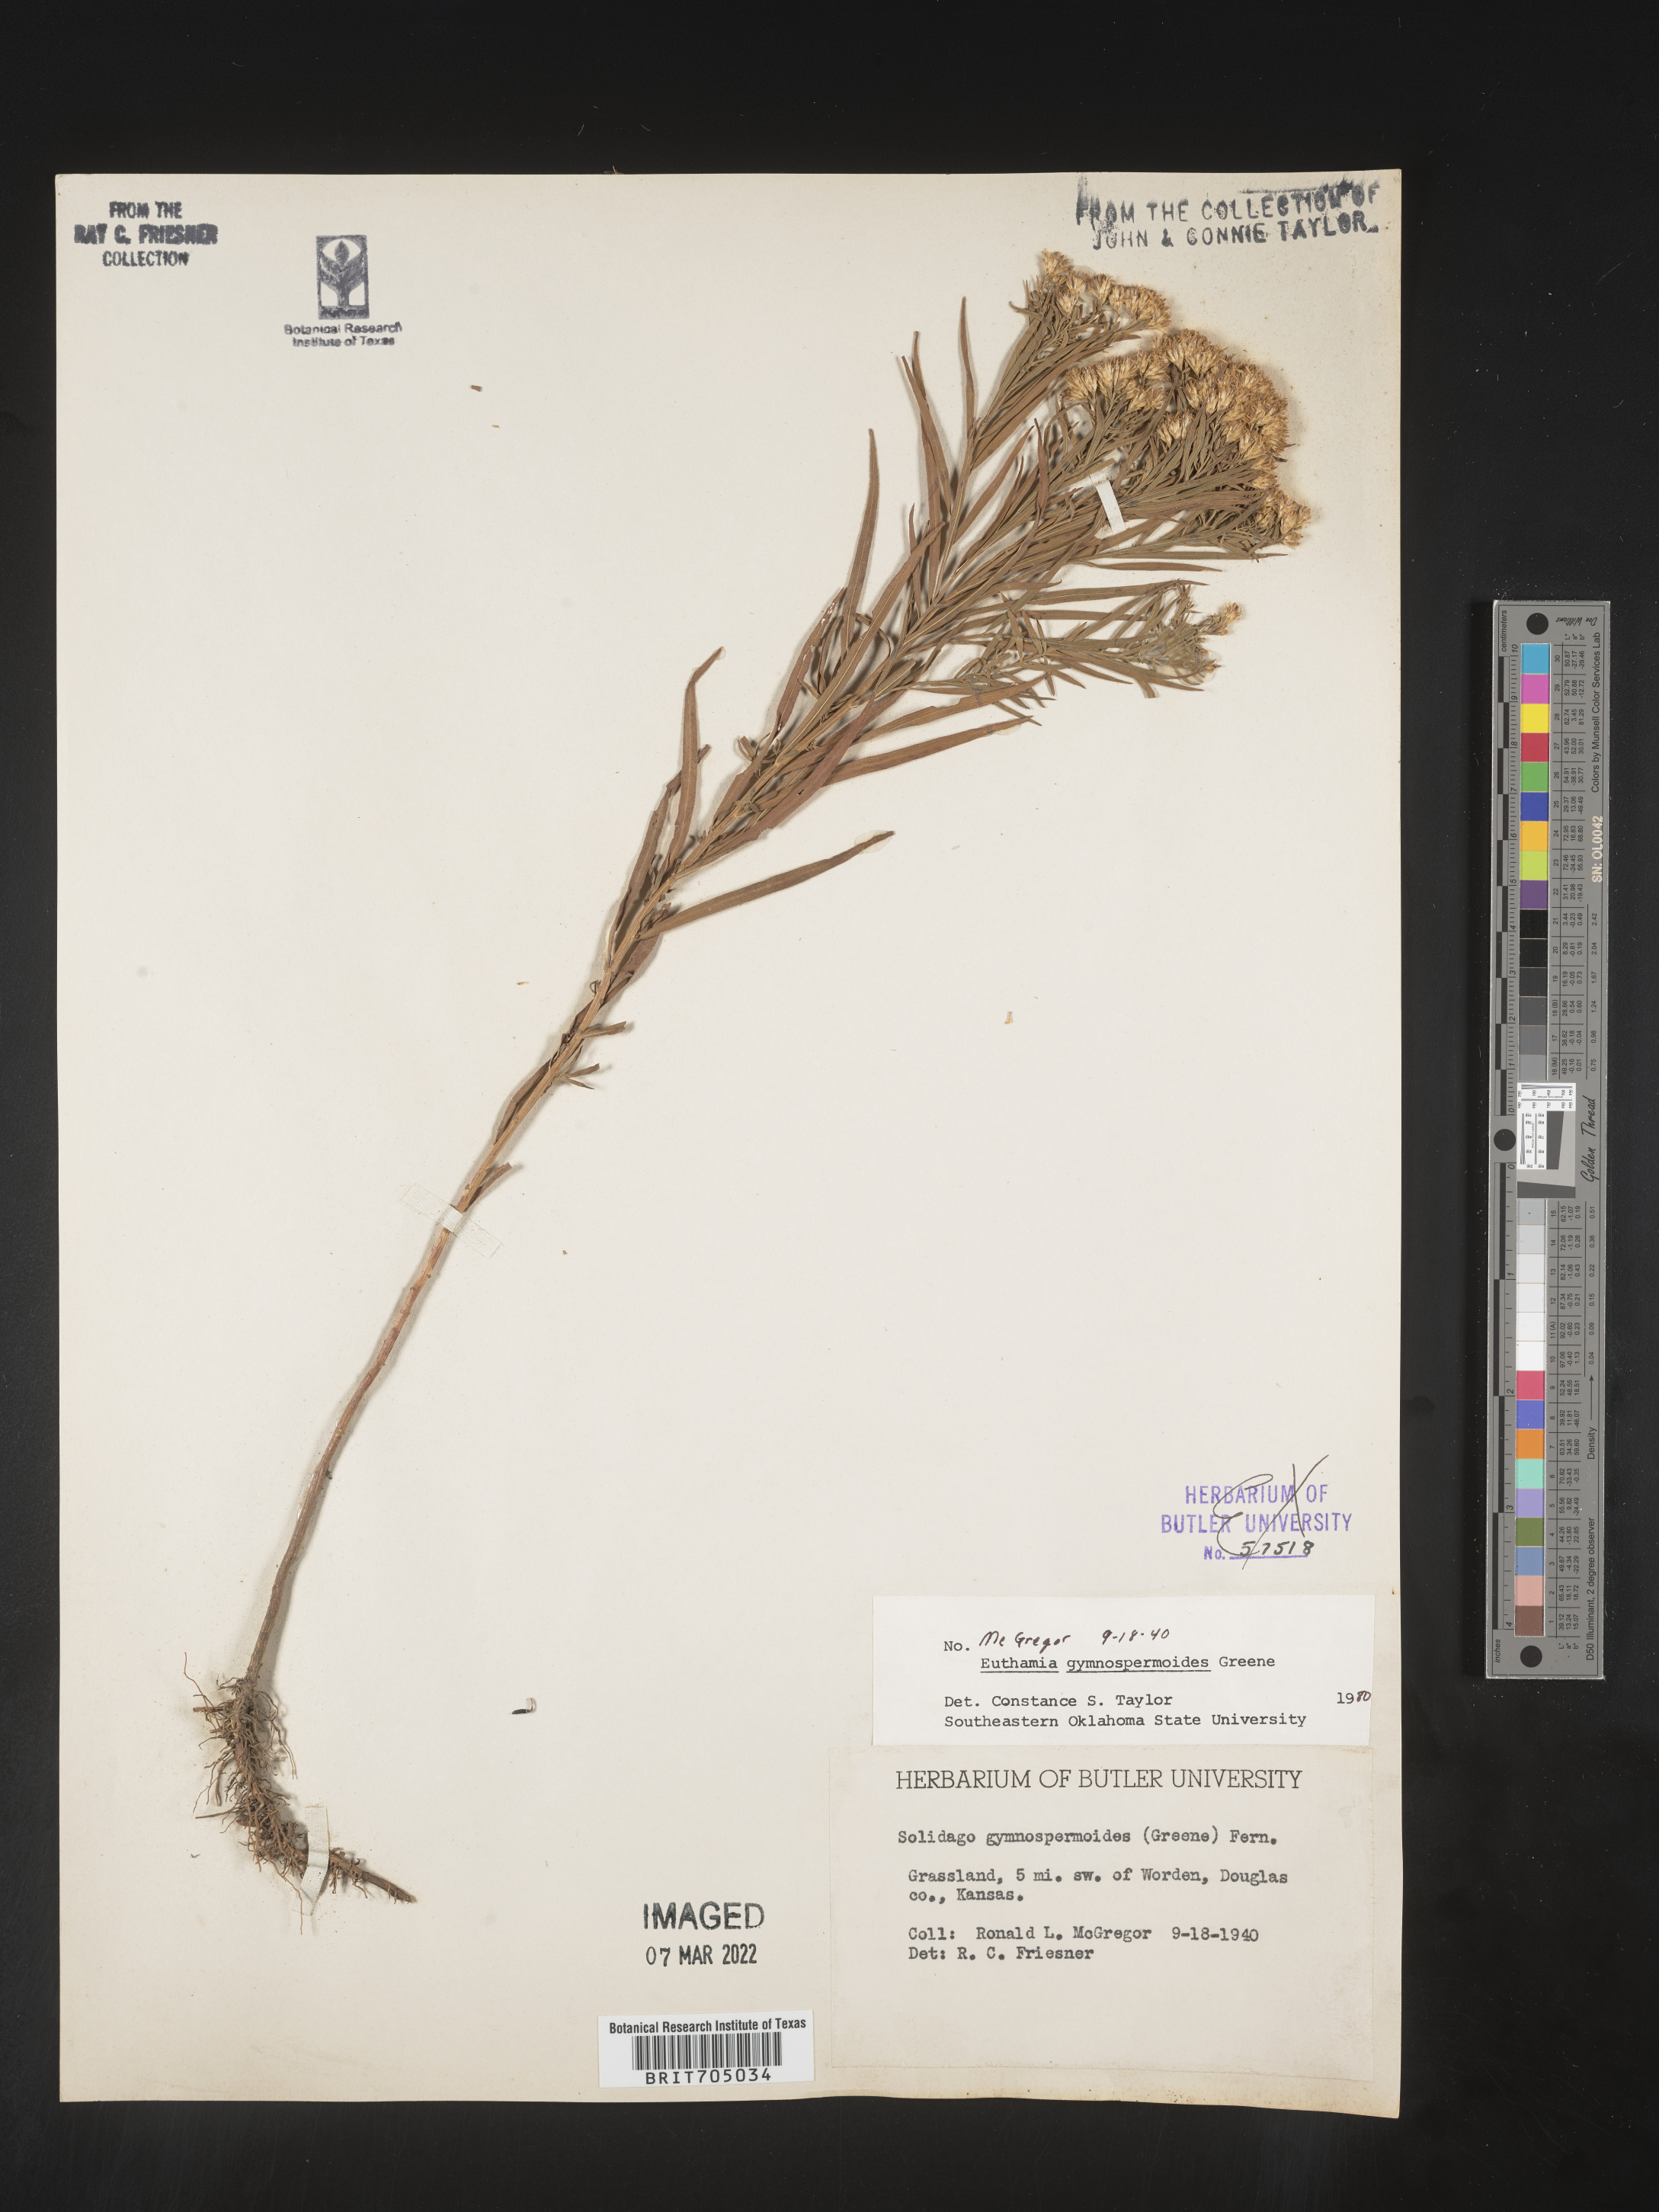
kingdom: Plantae
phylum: Tracheophyta
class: Magnoliopsida
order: Asterales
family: Asteraceae
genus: Euthamia
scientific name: Euthamia gymnospermoides
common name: Great plains goldentop
